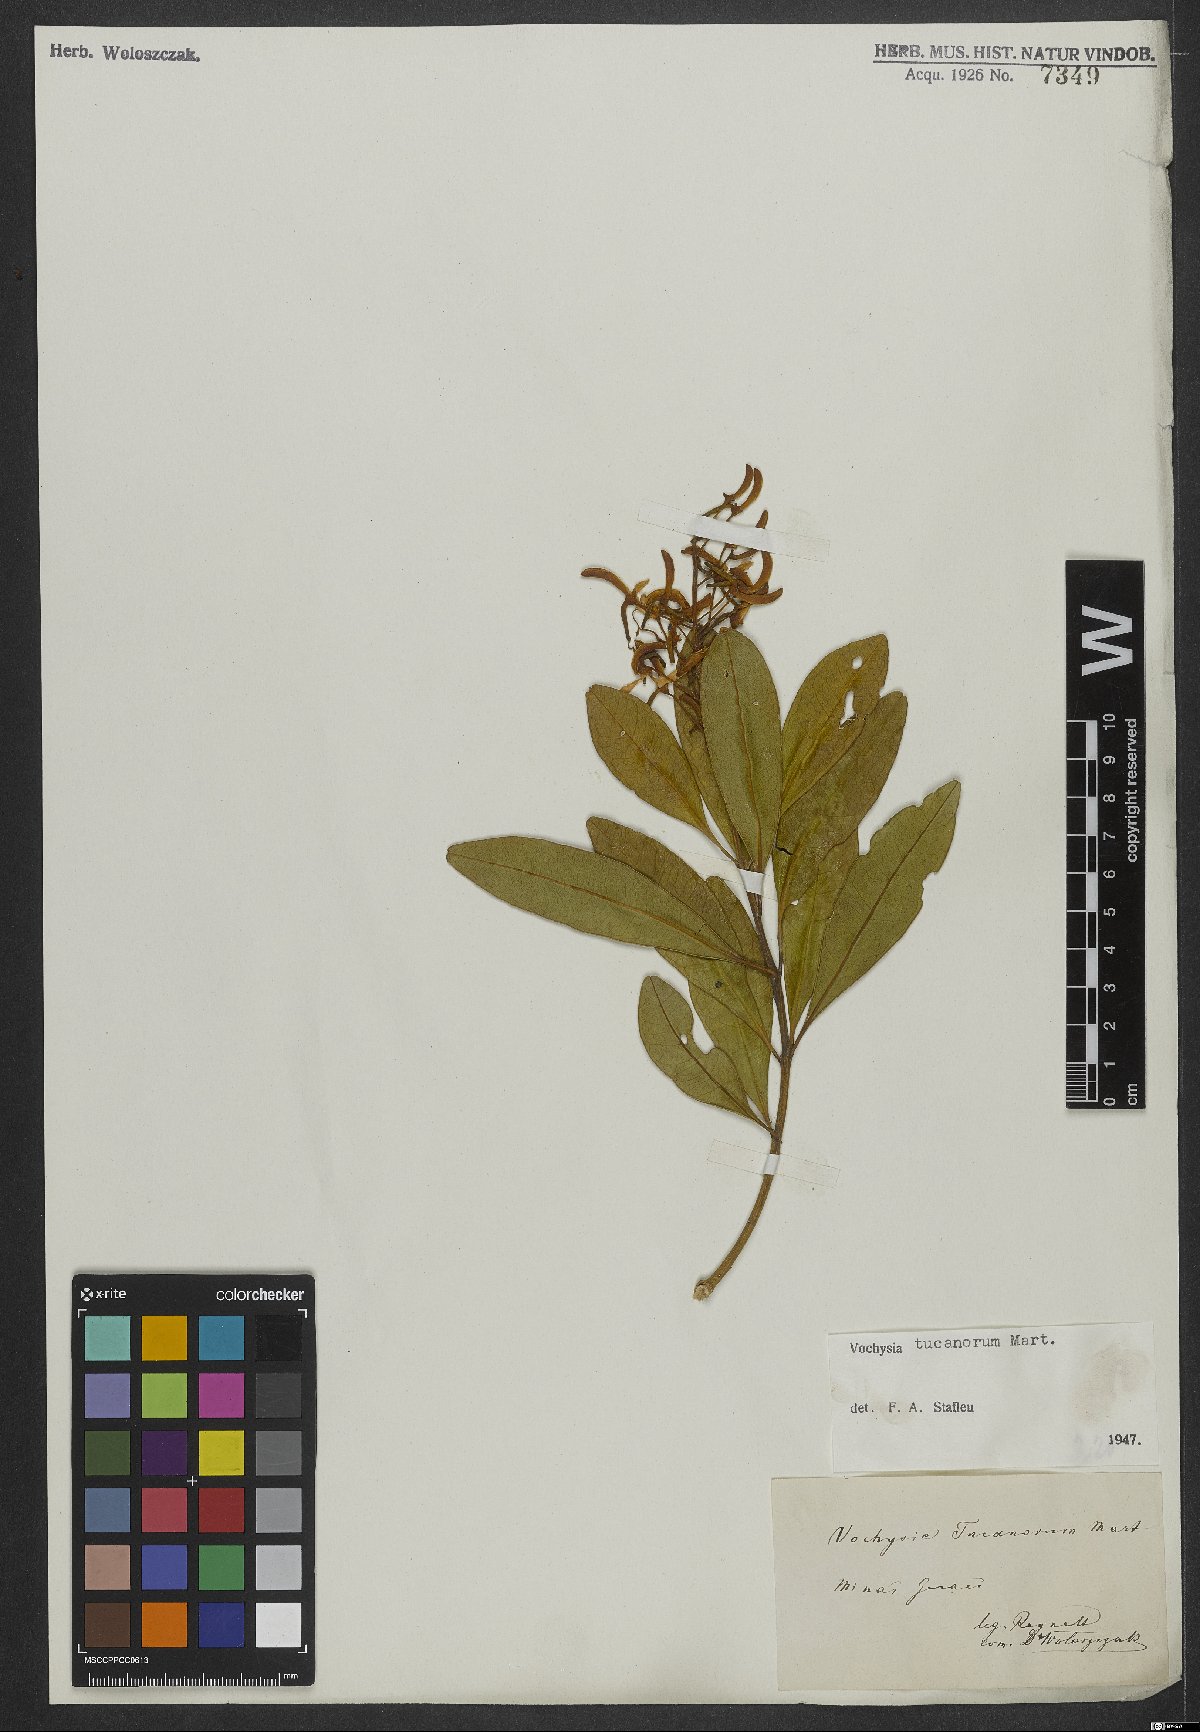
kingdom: Plantae
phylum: Tracheophyta
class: Magnoliopsida
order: Myrtales
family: Vochysiaceae
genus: Vochysia
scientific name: Vochysia tucanorum
